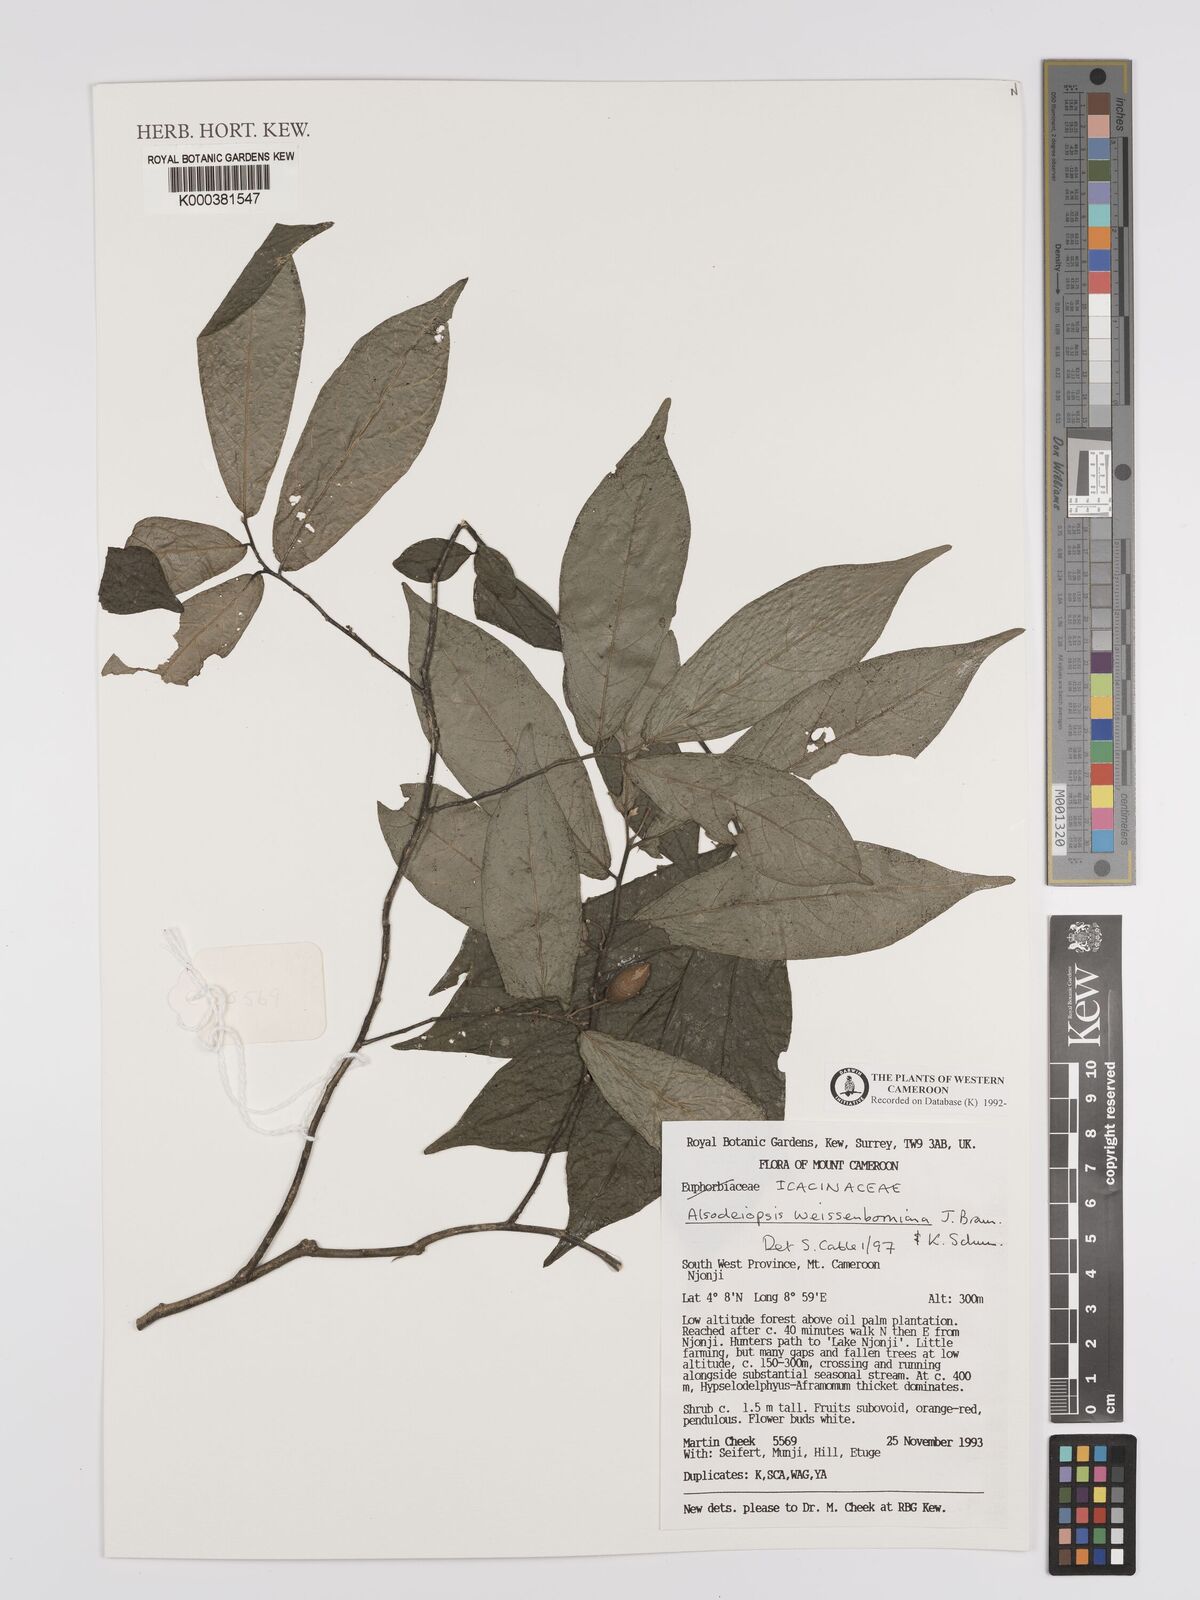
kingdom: Plantae
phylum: Tracheophyta
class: Magnoliopsida
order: Icacinales
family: Icacinaceae
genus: Alsodeiopsis
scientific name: Alsodeiopsis mannii
